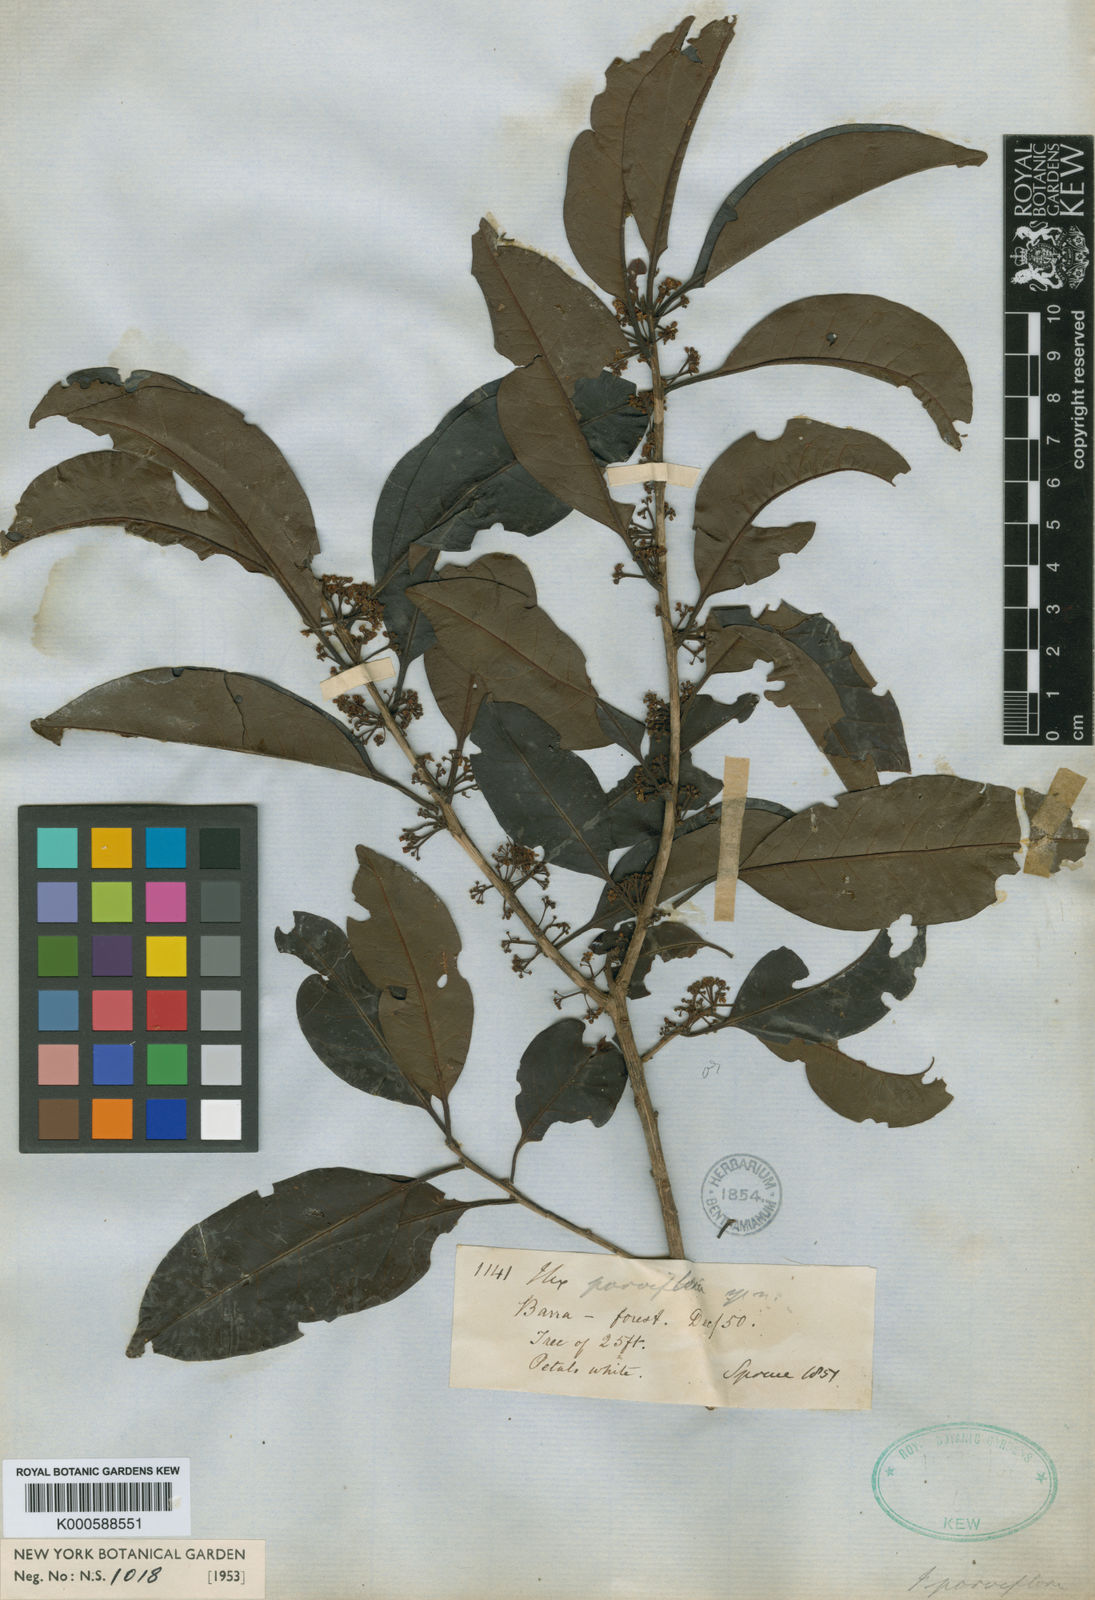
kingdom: Plantae
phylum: Tracheophyta
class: Magnoliopsida
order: Aquifoliales
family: Aquifoliaceae
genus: Ilex
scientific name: Ilex petiolaris
